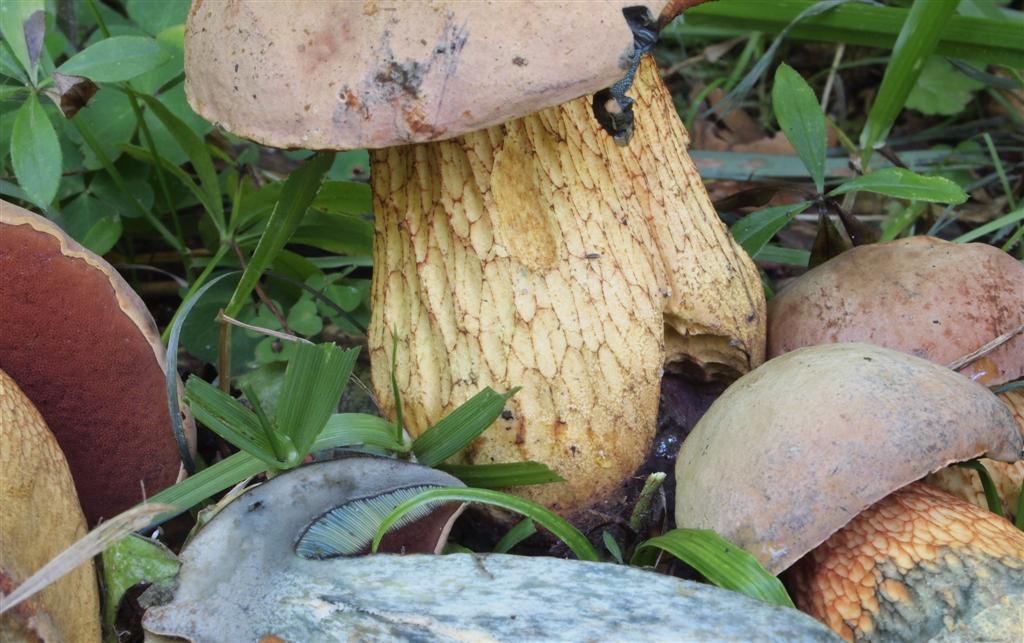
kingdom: Fungi
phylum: Basidiomycota
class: Agaricomycetes
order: Boletales
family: Boletaceae
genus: Suillellus
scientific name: Suillellus luridus
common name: netstokket indigorørhat
